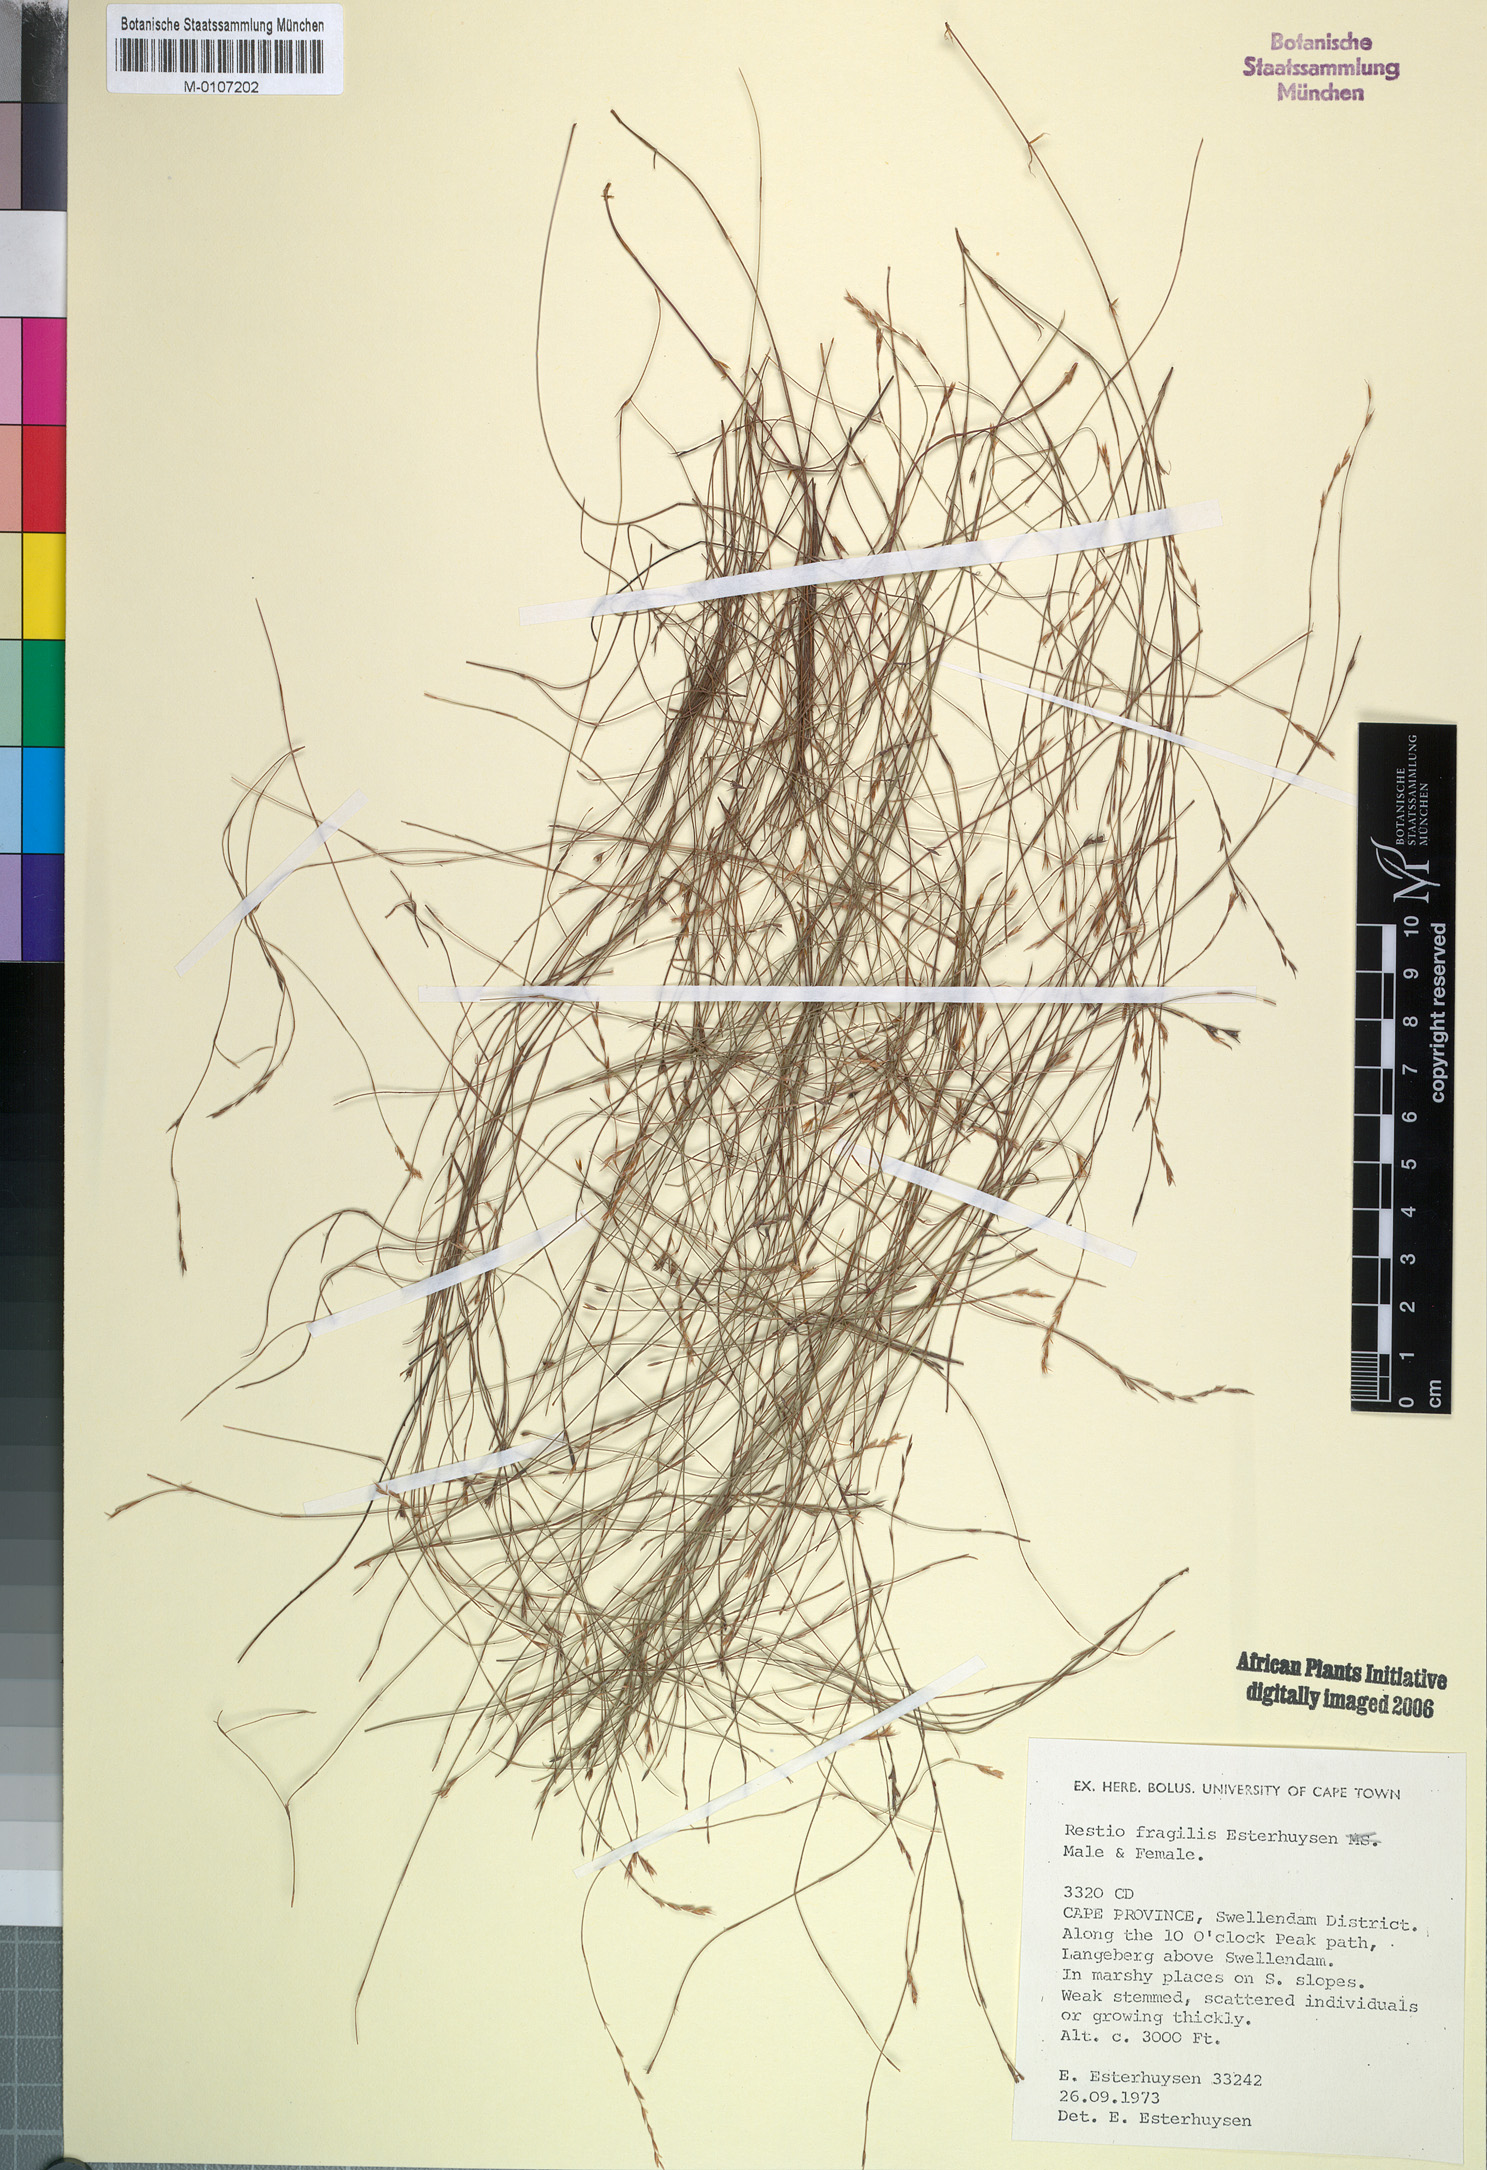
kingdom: Plantae
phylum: Tracheophyta
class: Liliopsida
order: Poales
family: Restionaceae
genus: Restio
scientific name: Restio fragilis
